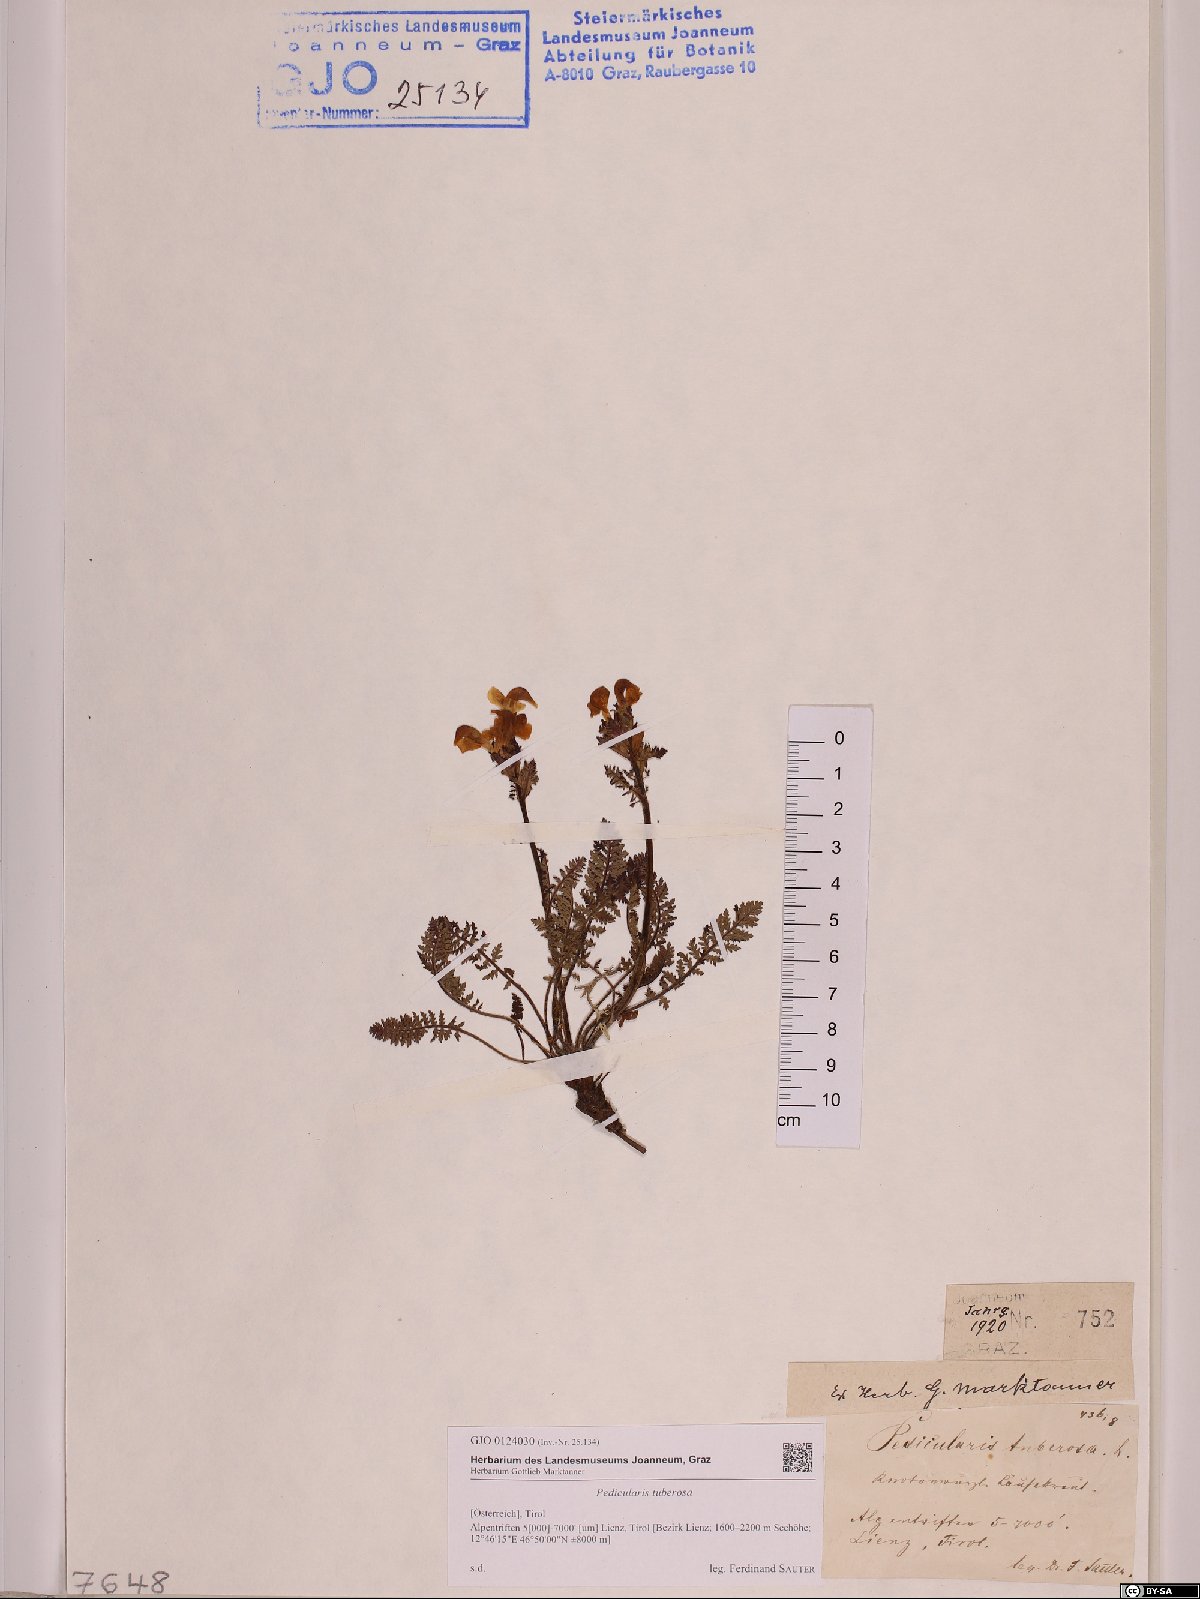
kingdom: Plantae
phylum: Tracheophyta
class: Magnoliopsida
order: Lamiales
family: Orobanchaceae
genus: Pedicularis
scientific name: Pedicularis tuberosa
